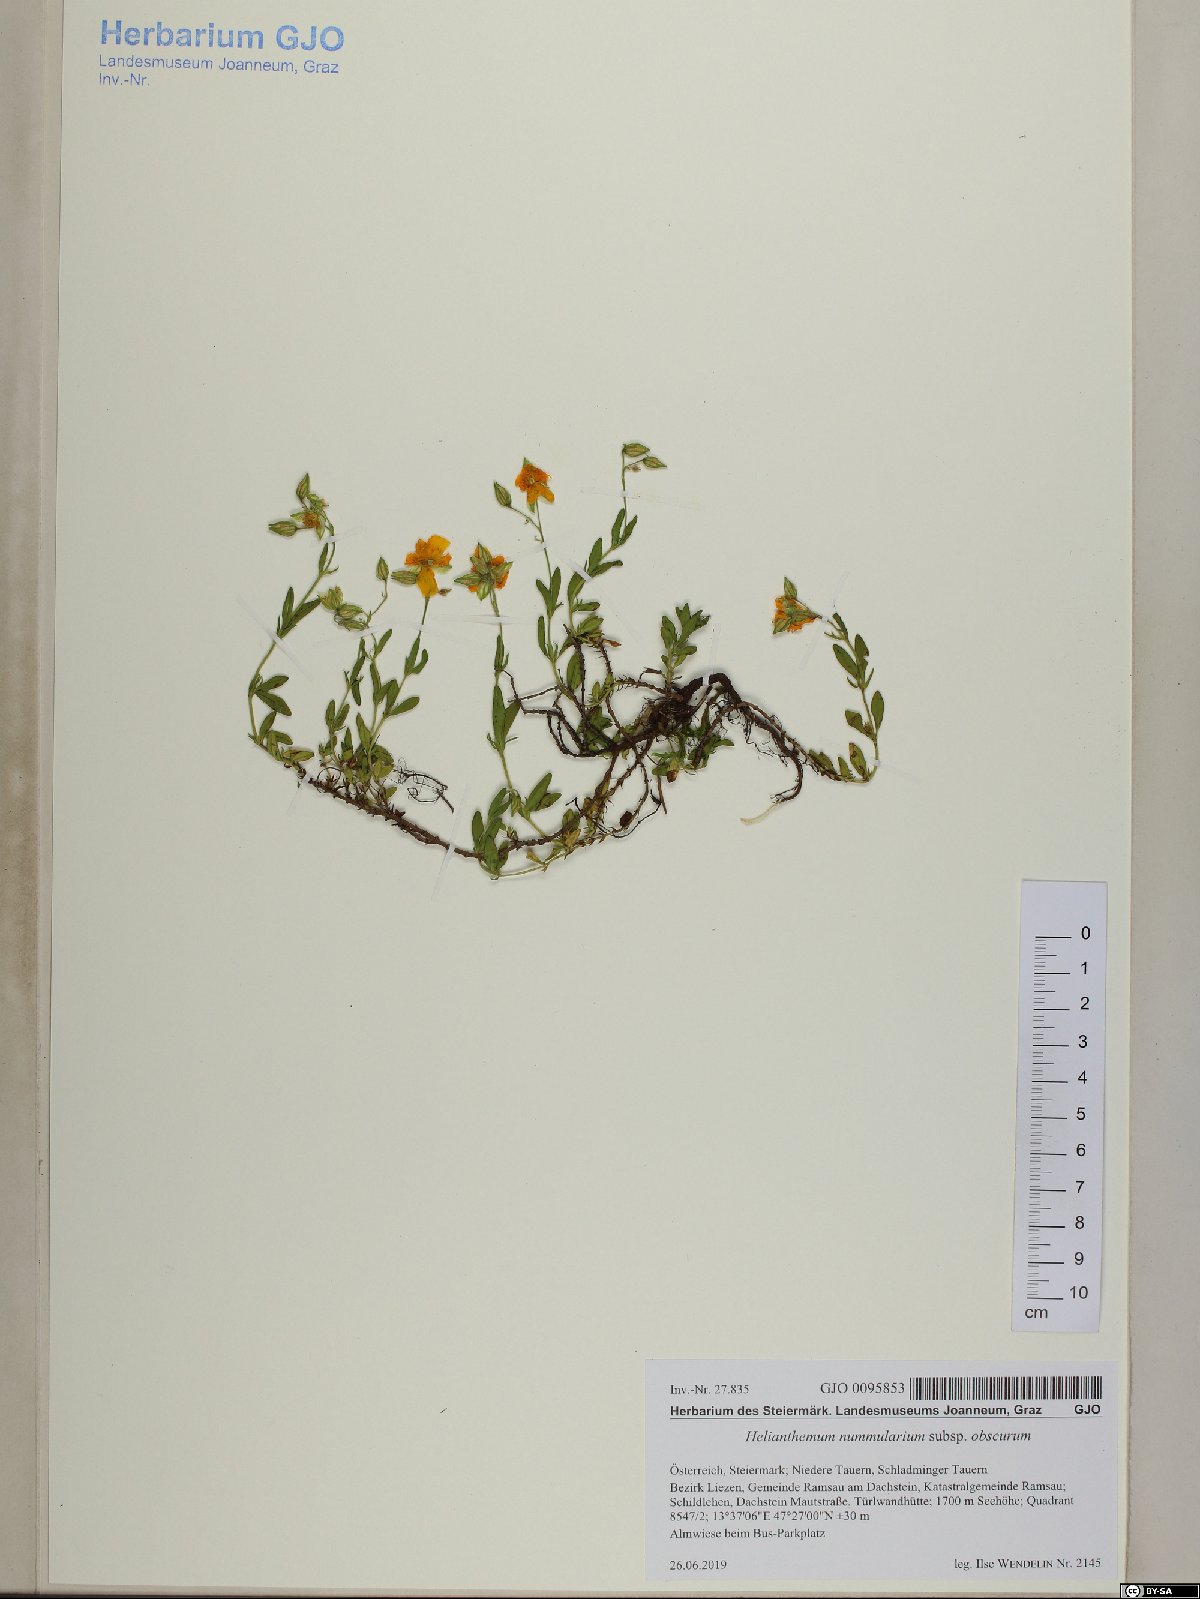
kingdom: Plantae
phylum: Tracheophyta
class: Magnoliopsida
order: Malvales
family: Cistaceae
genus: Helianthemum
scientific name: Helianthemum nummularium
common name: Common rock-rose
